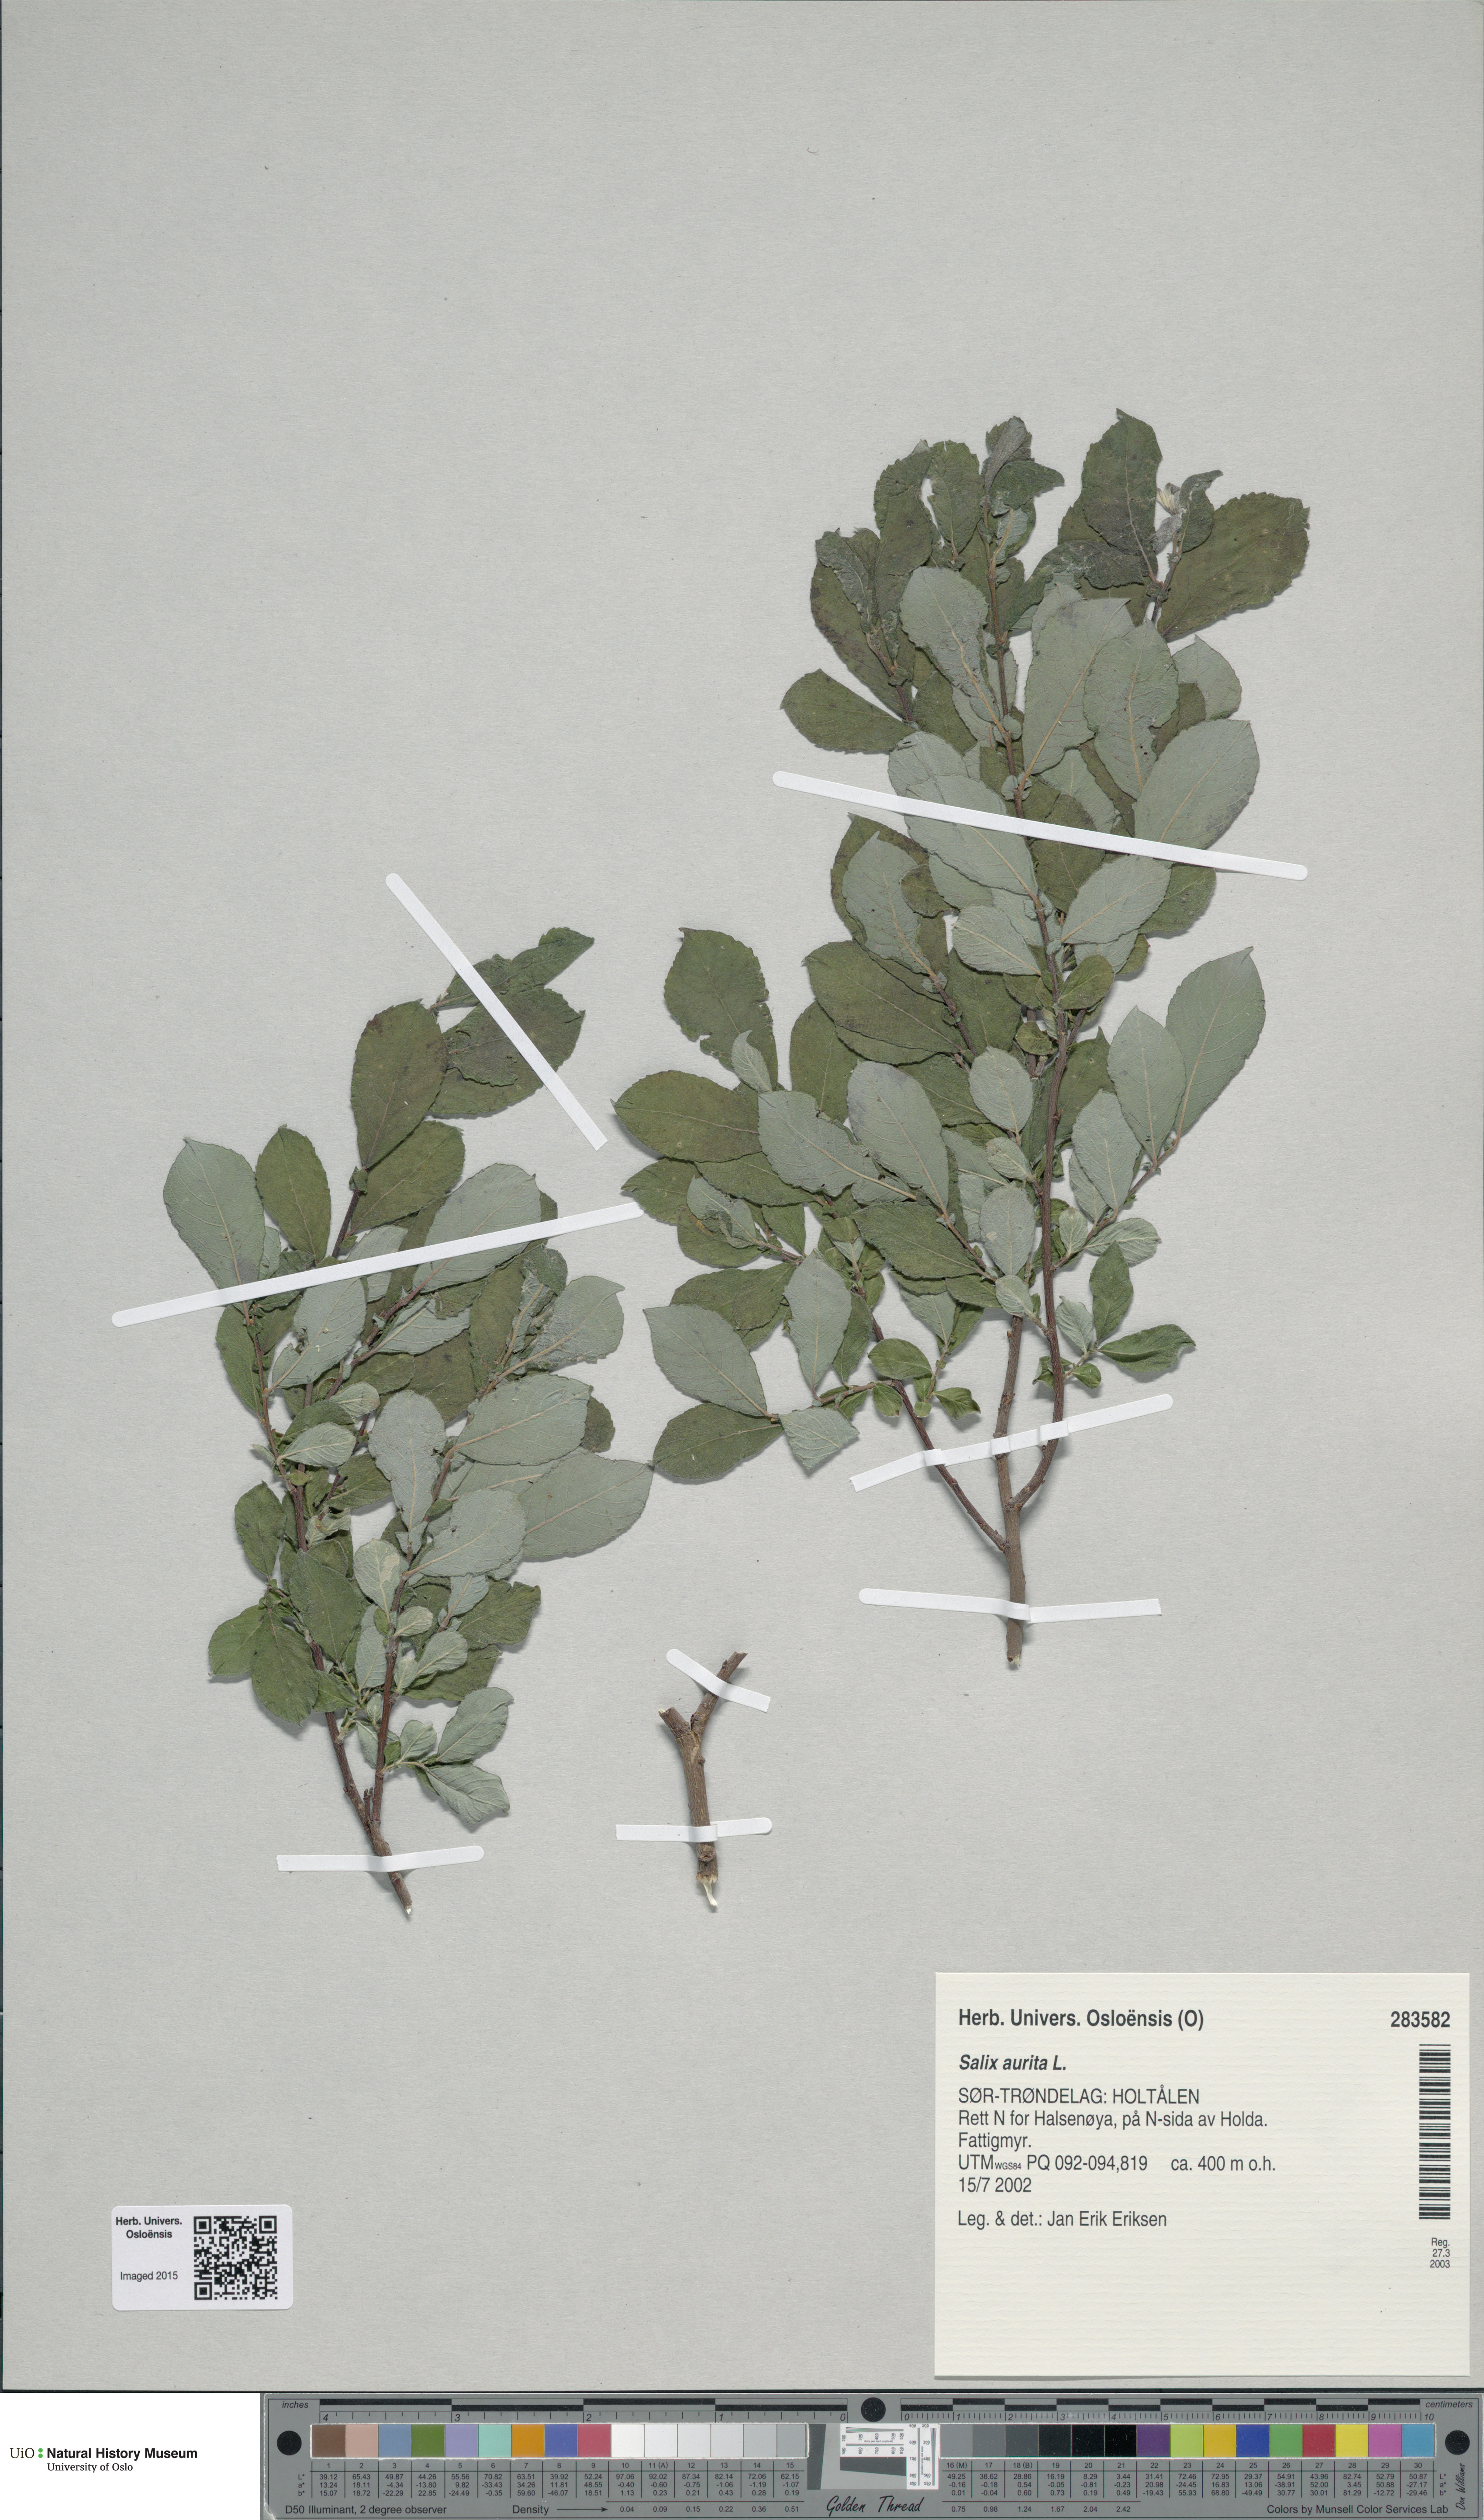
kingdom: Plantae
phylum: Tracheophyta
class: Magnoliopsida
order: Malpighiales
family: Salicaceae
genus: Salix
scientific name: Salix aurita
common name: Eared willow
